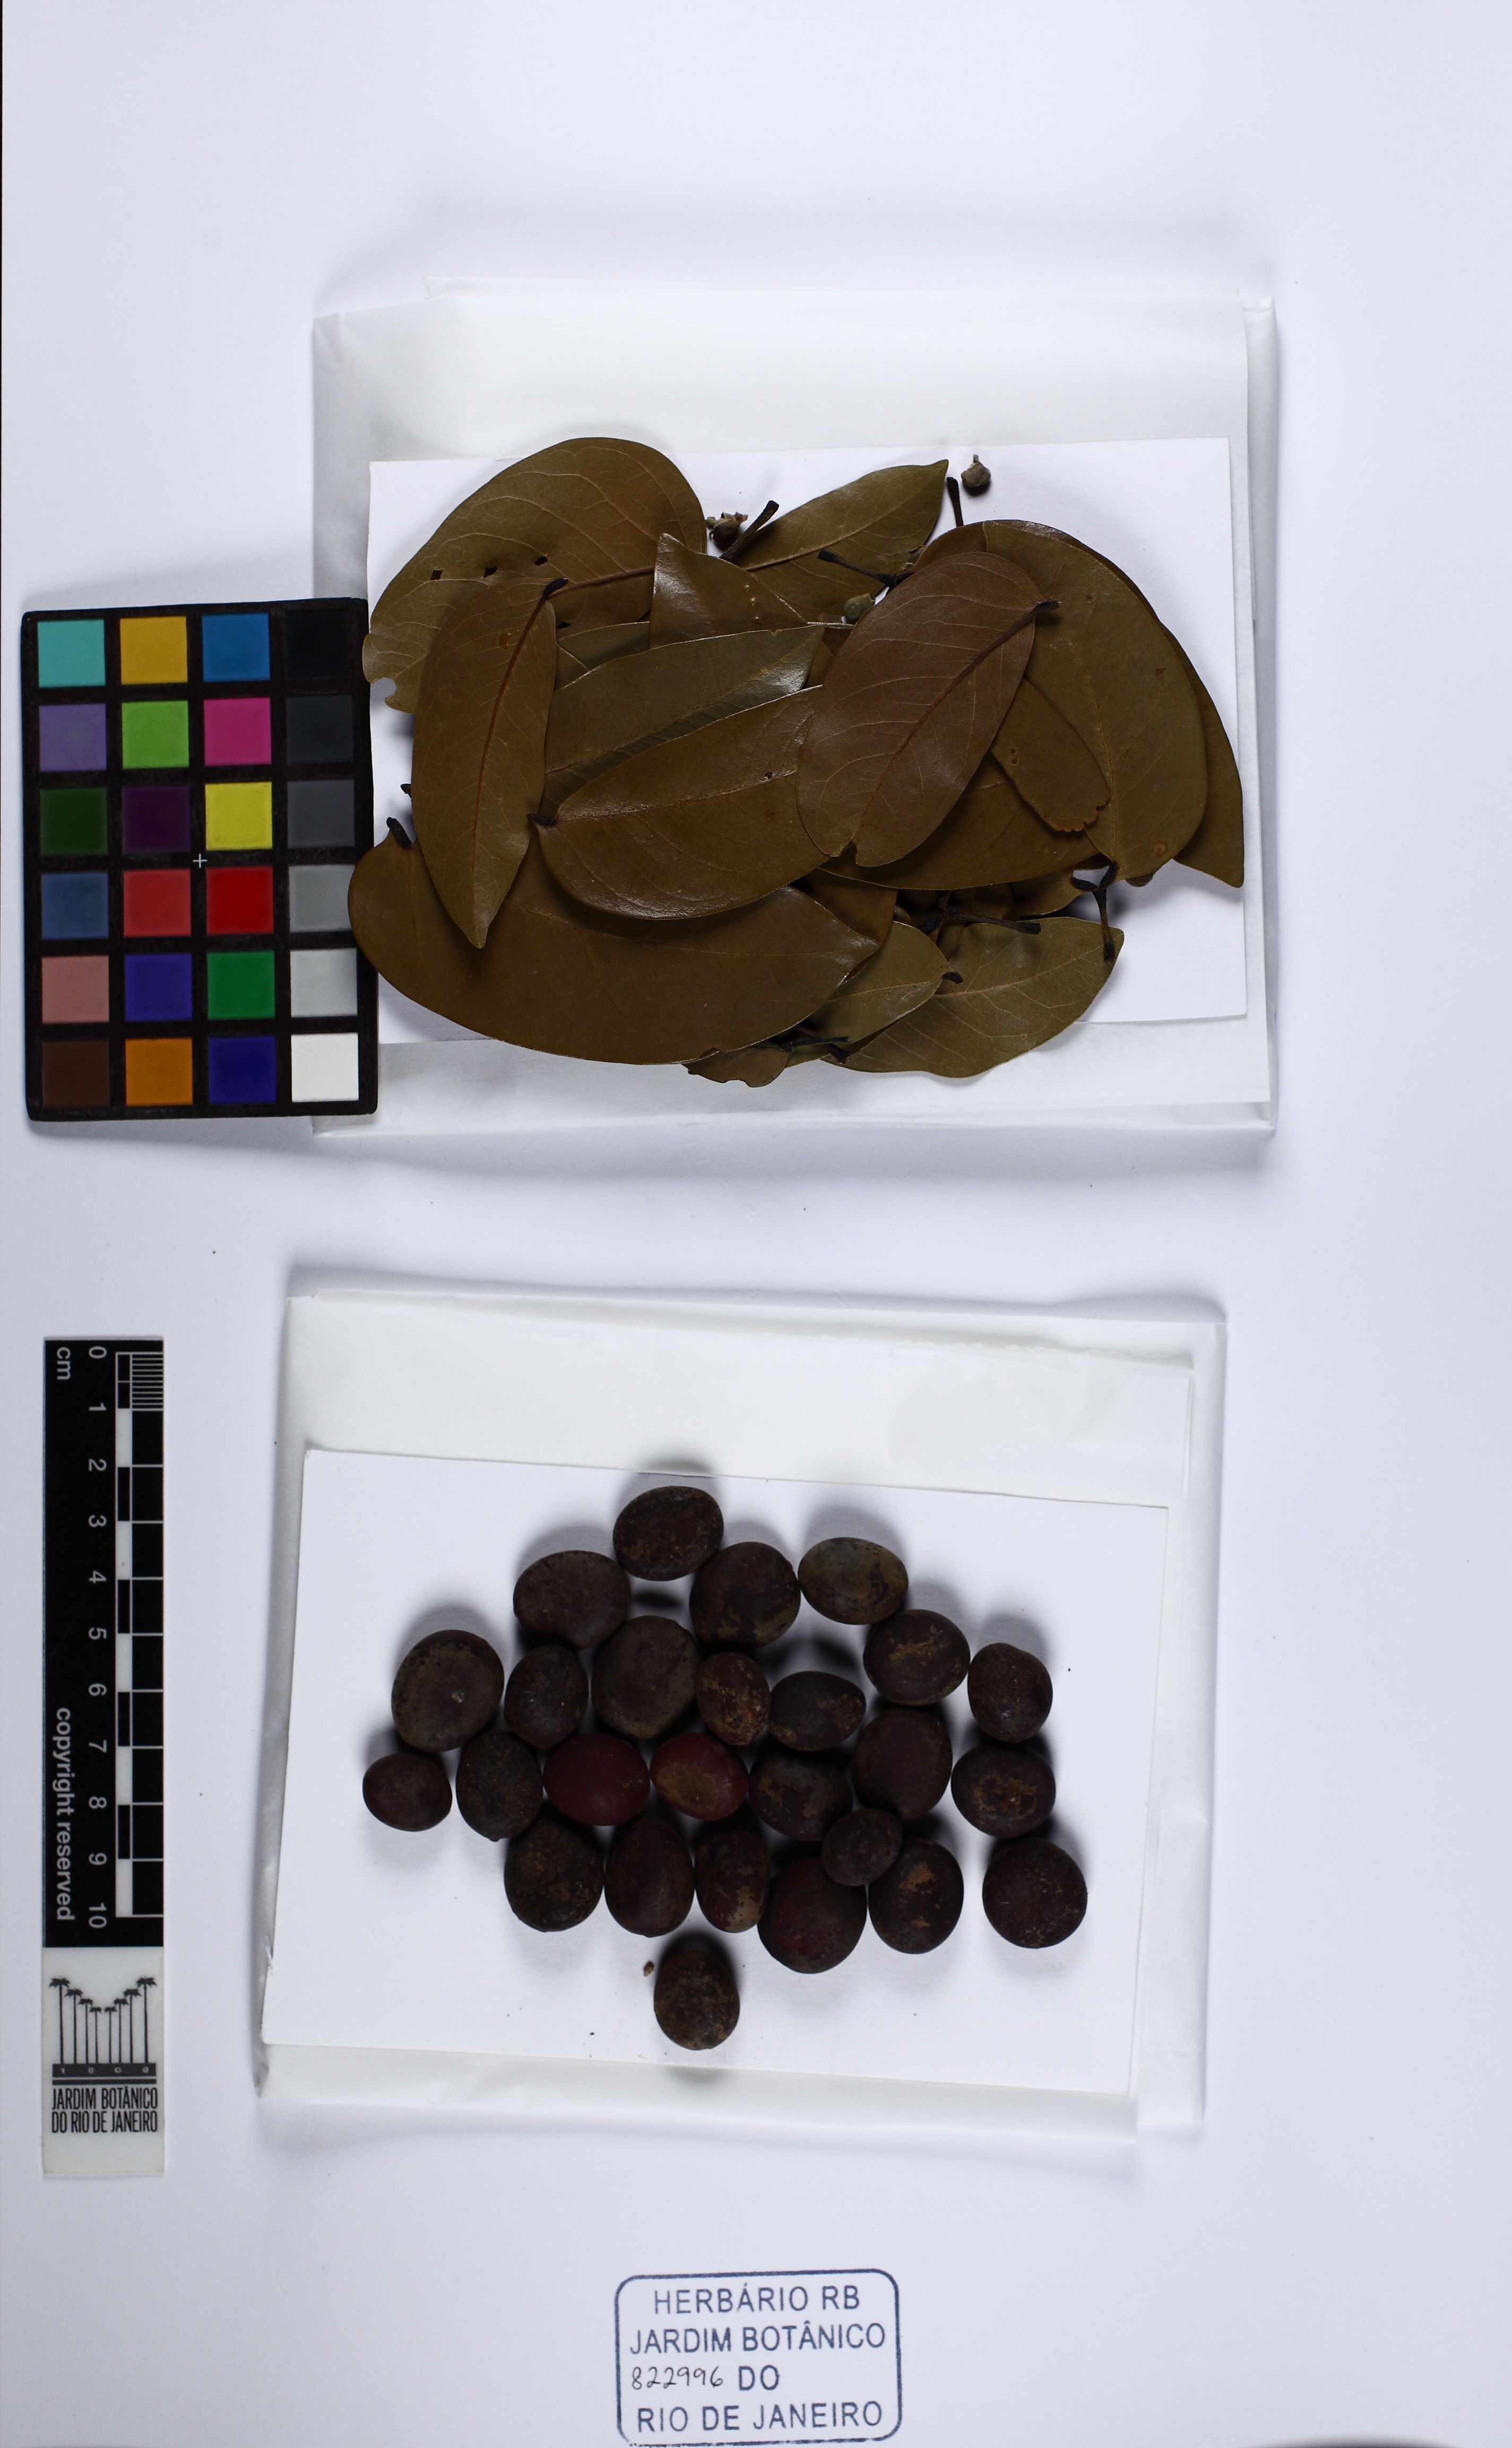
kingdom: Plantae
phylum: Tracheophyta
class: Magnoliopsida
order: Fabales
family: Fabaceae
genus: Hymenaea
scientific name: Hymenaea courbaril
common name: Brazilian copal
